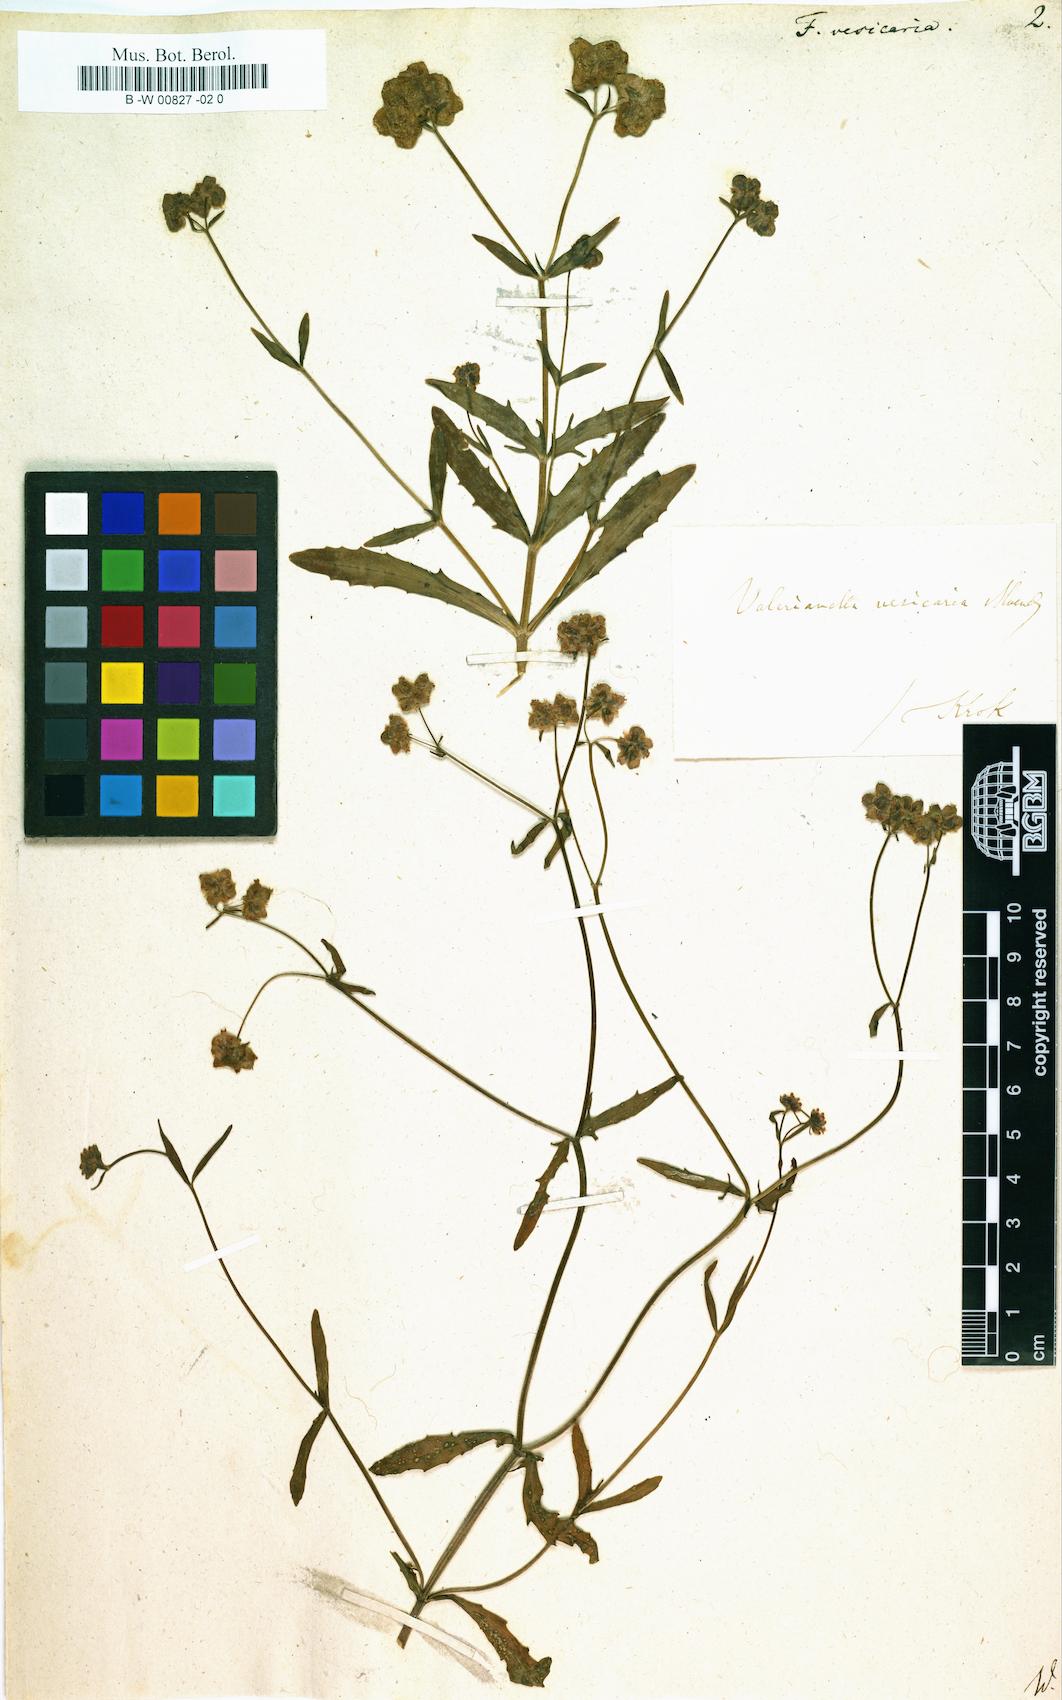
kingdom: Plantae
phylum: Tracheophyta
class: Magnoliopsida
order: Dipsacales
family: Caprifoliaceae
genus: Valerianella
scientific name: Valerianella vesicaria
